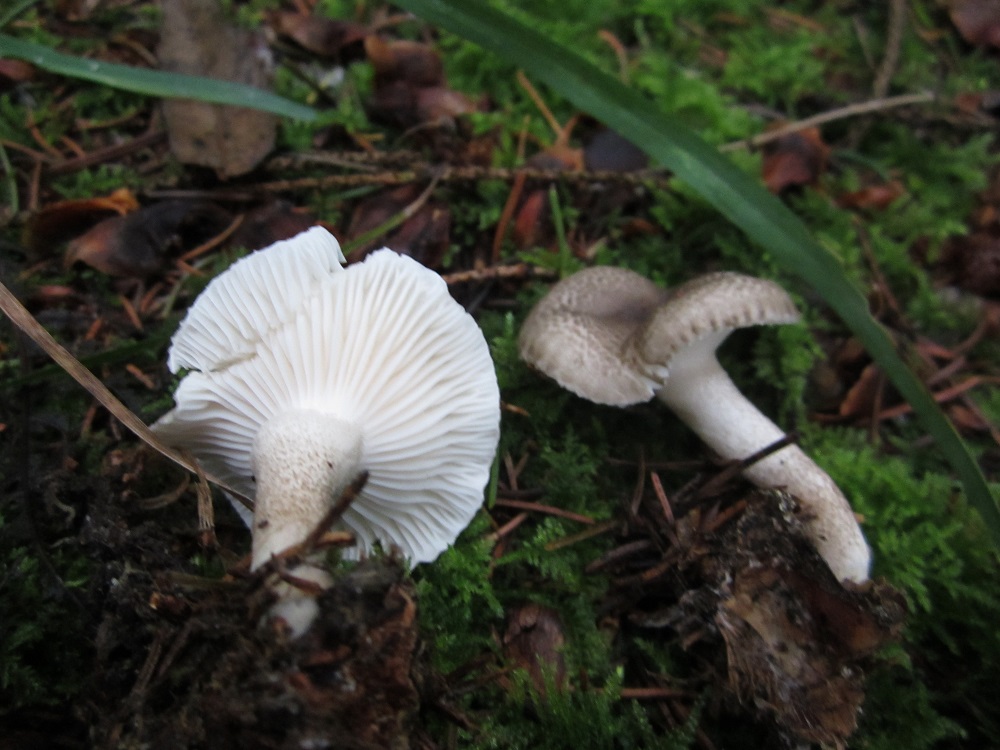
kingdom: Fungi
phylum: Basidiomycota
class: Agaricomycetes
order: Agaricales
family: Hygrophoraceae
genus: Hygrophorus
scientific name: Hygrophorus pustulatus
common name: mørkprikket sneglehat
